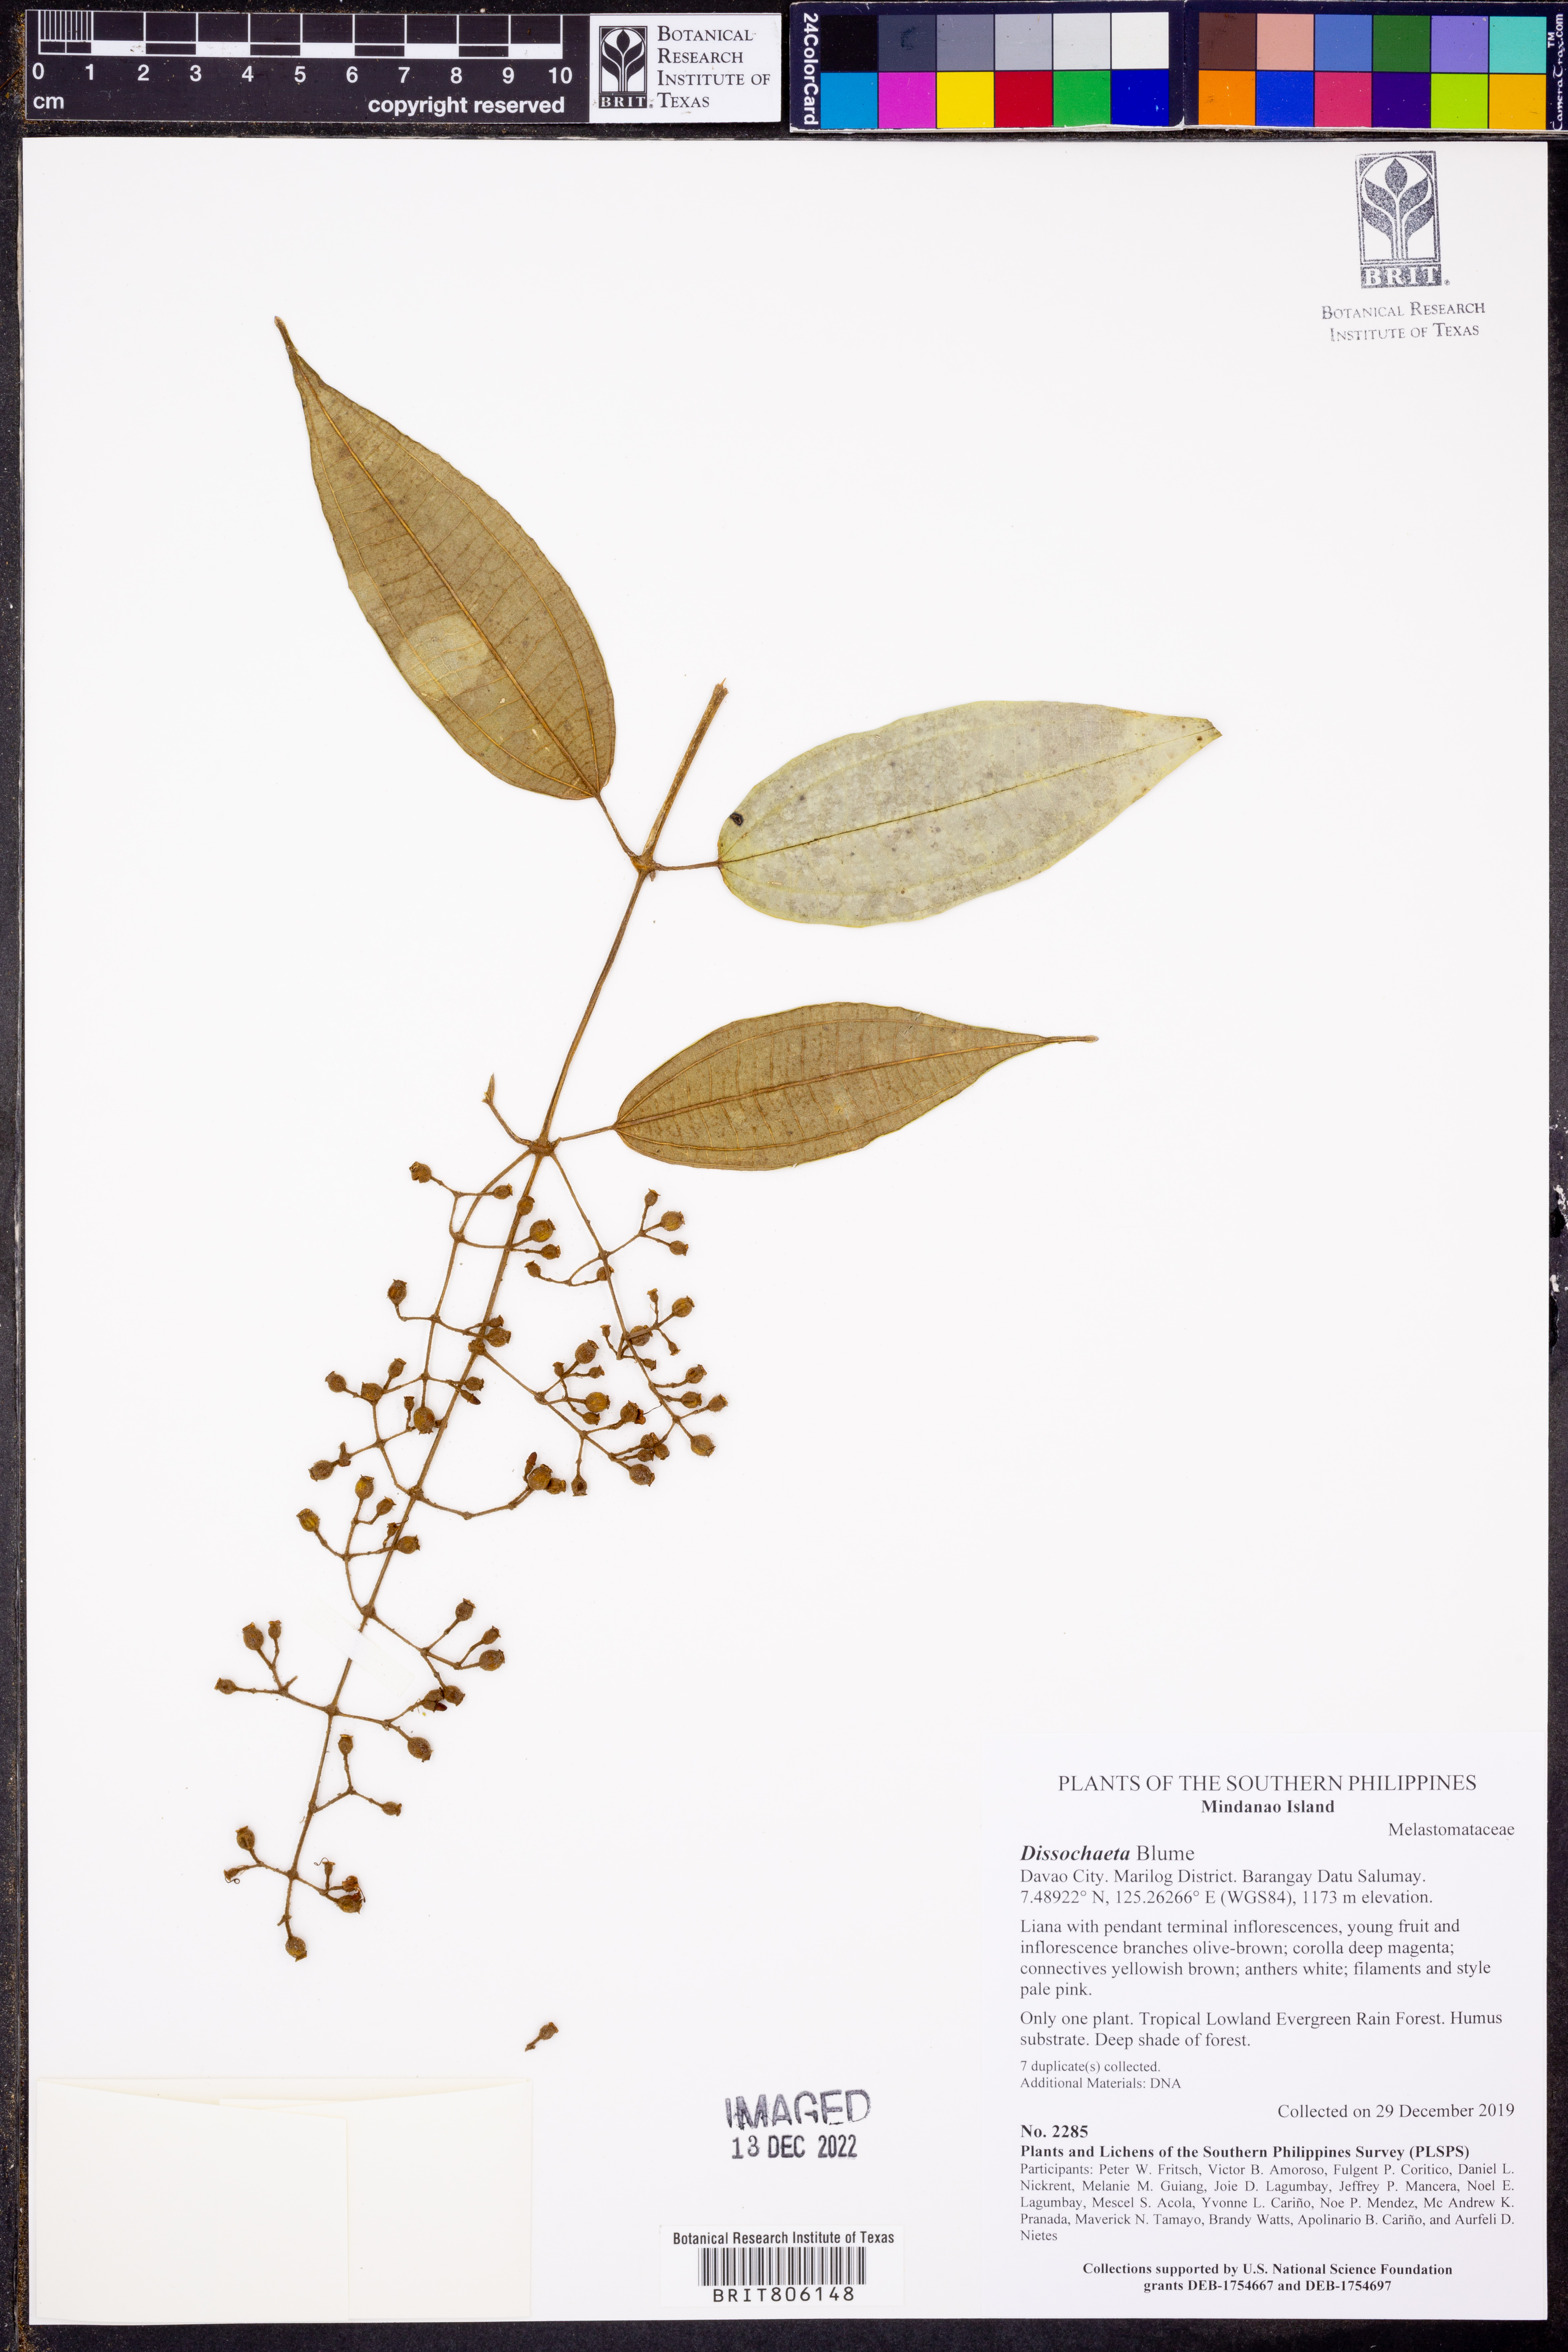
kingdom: Plantae
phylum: Tracheophyta
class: Magnoliopsida
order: Myrtales
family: Melastomataceae
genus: Dissochaeta
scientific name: Dissochaeta
